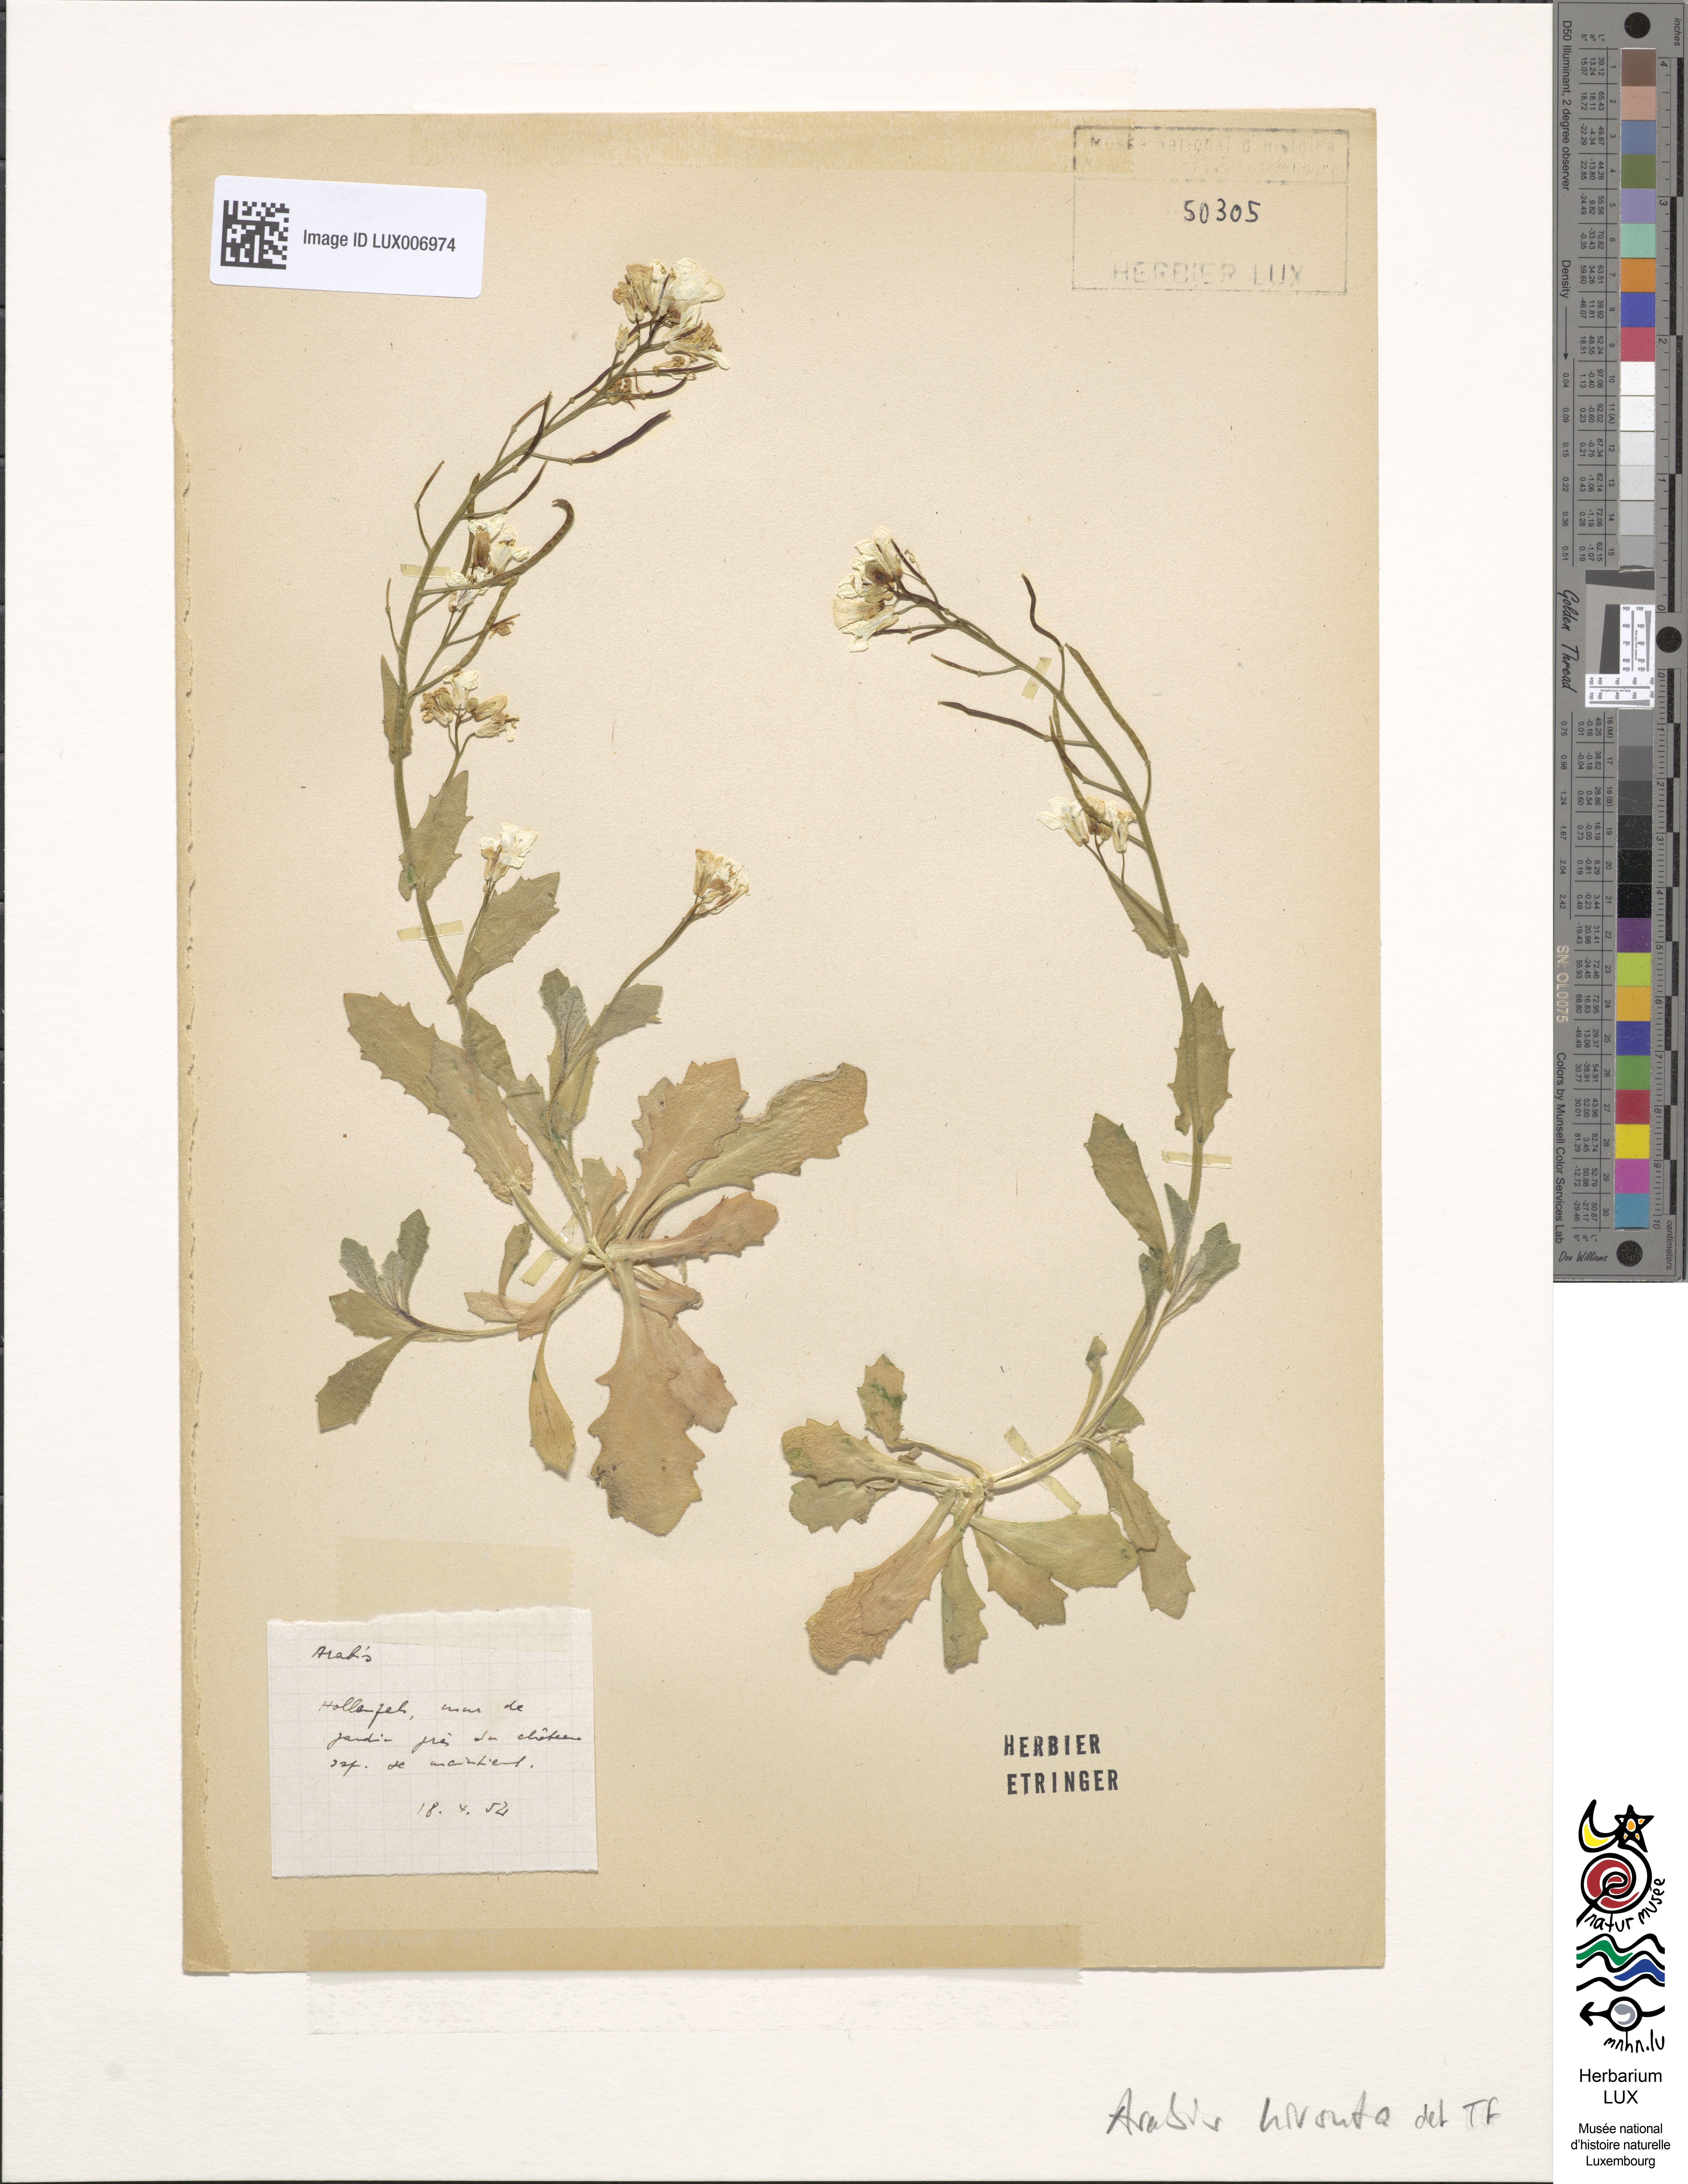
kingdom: Plantae
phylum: Tracheophyta
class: Magnoliopsida
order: Brassicales
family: Brassicaceae
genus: Arabis
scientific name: Arabis hirsuta
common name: Hairy rock-cress
